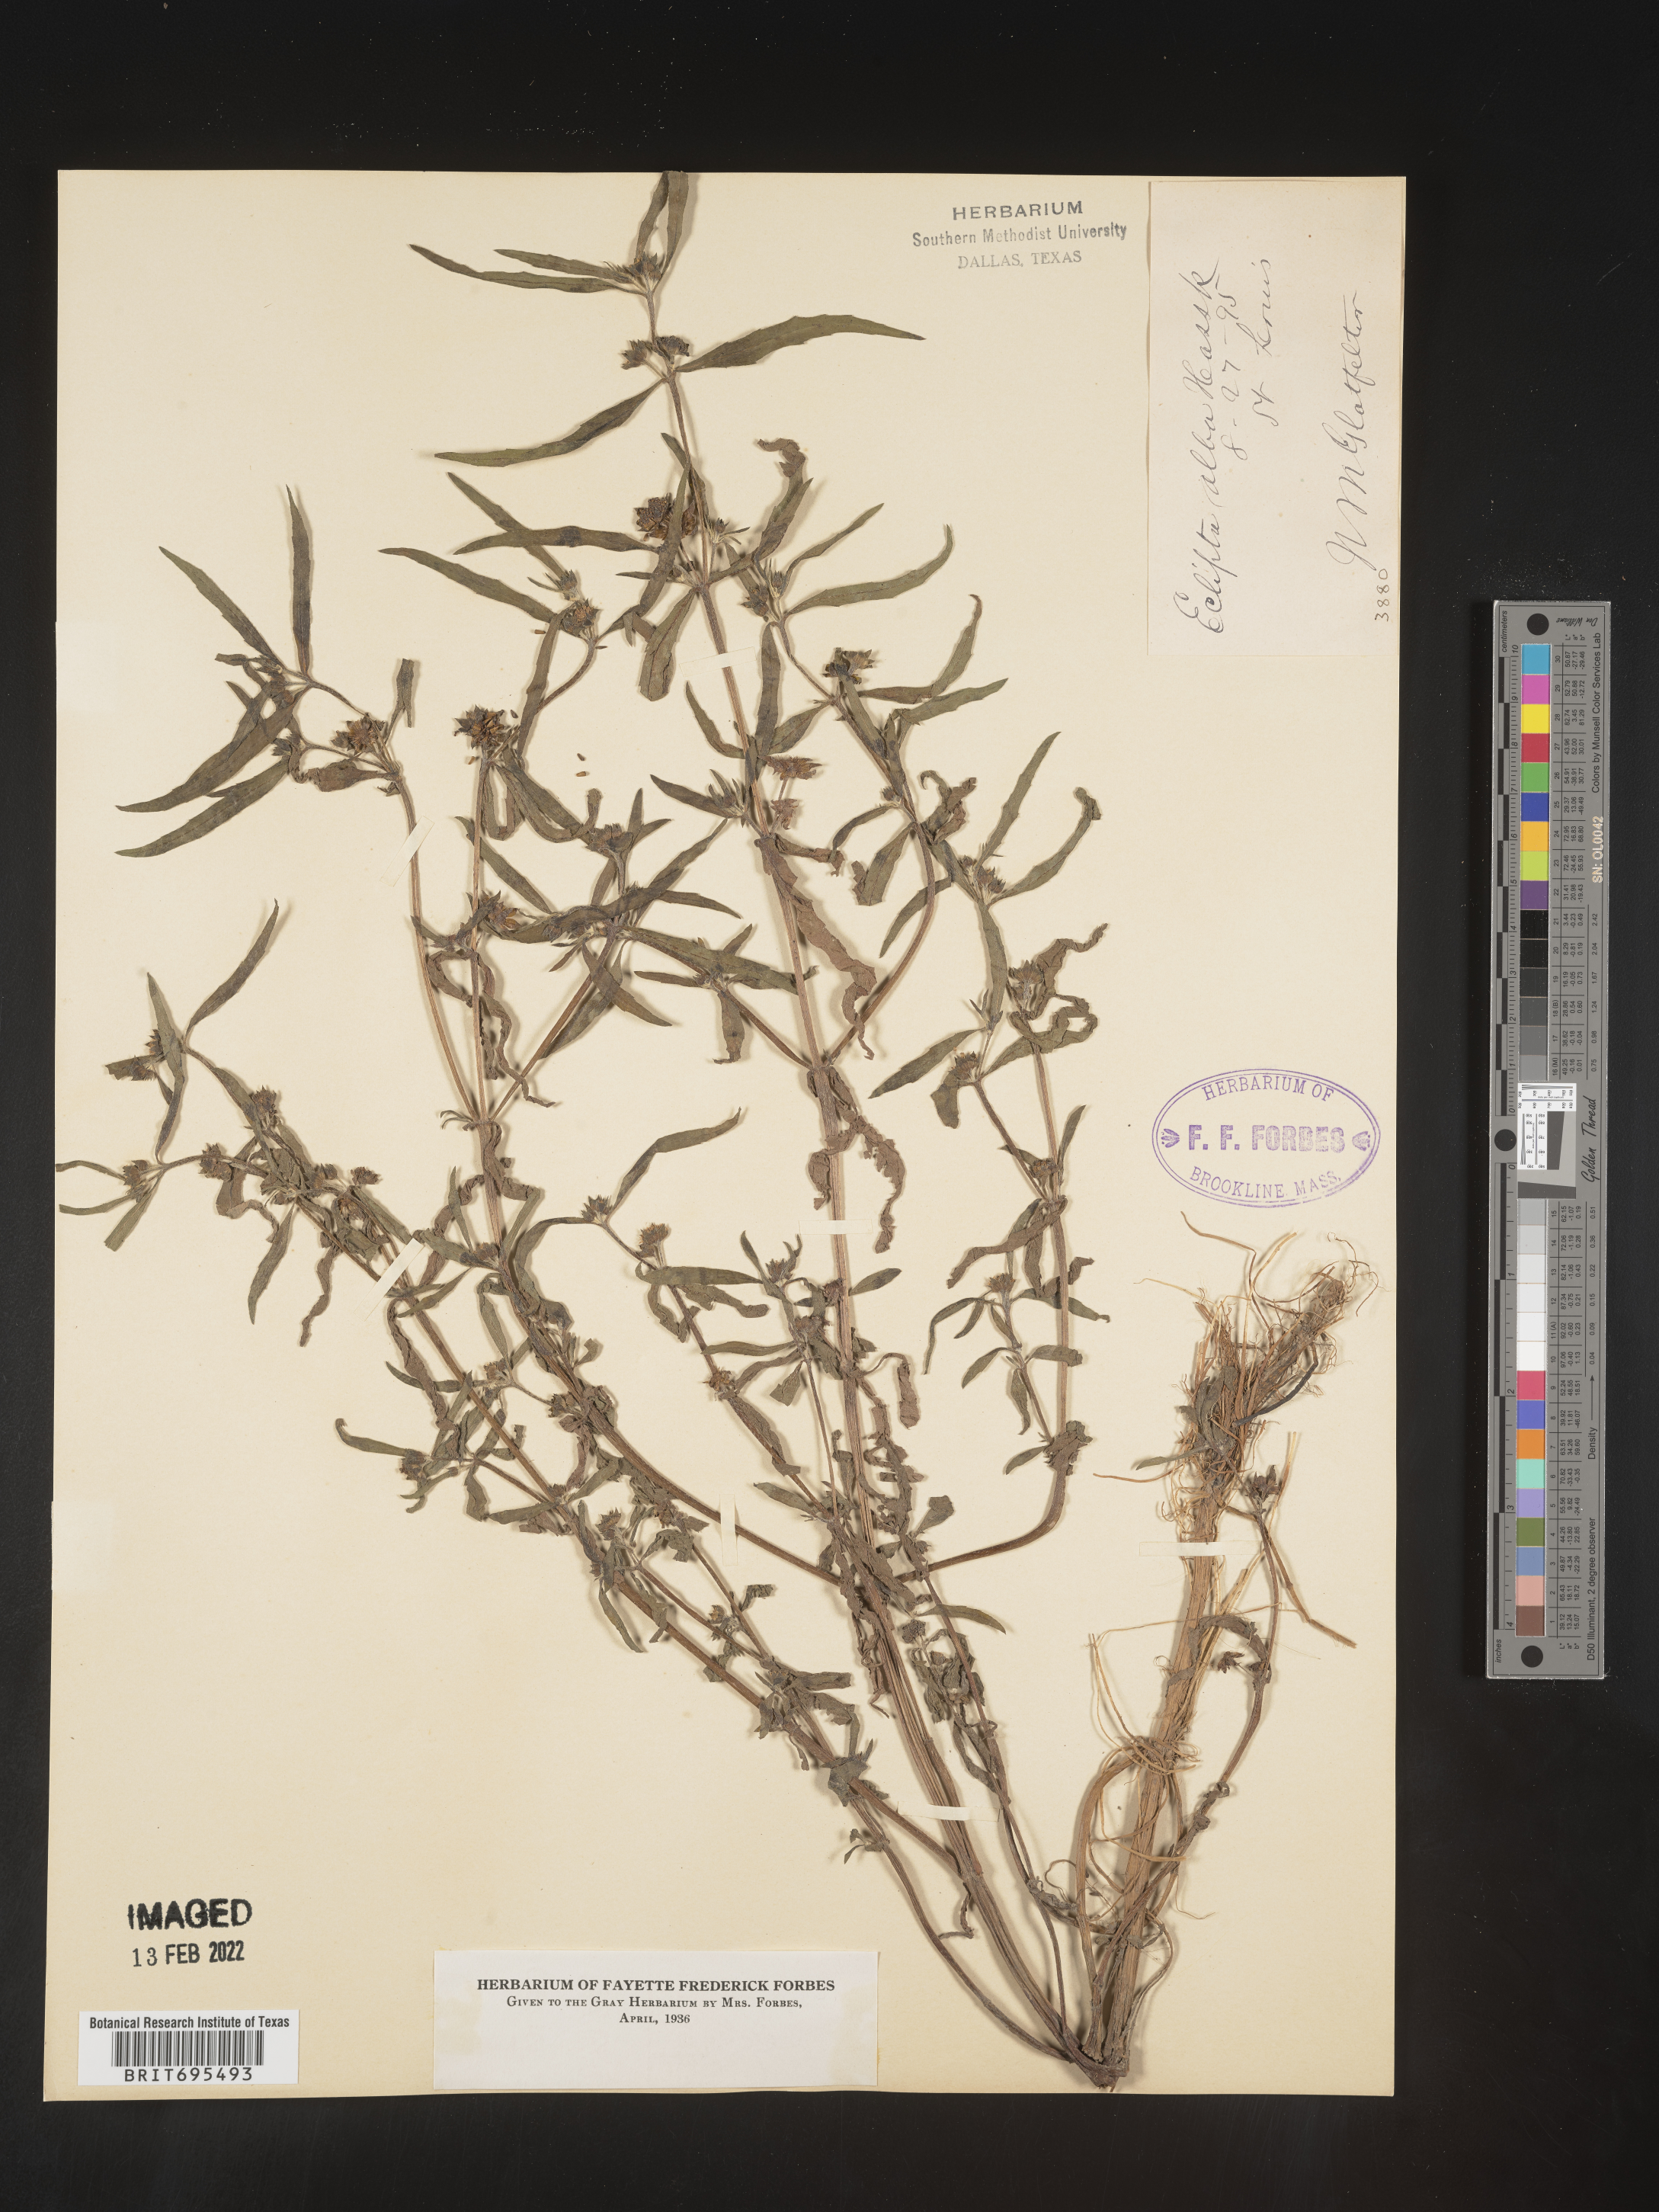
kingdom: Plantae
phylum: Tracheophyta
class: Magnoliopsida
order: Asterales
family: Asteraceae
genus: Eclipta
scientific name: Eclipta alba
